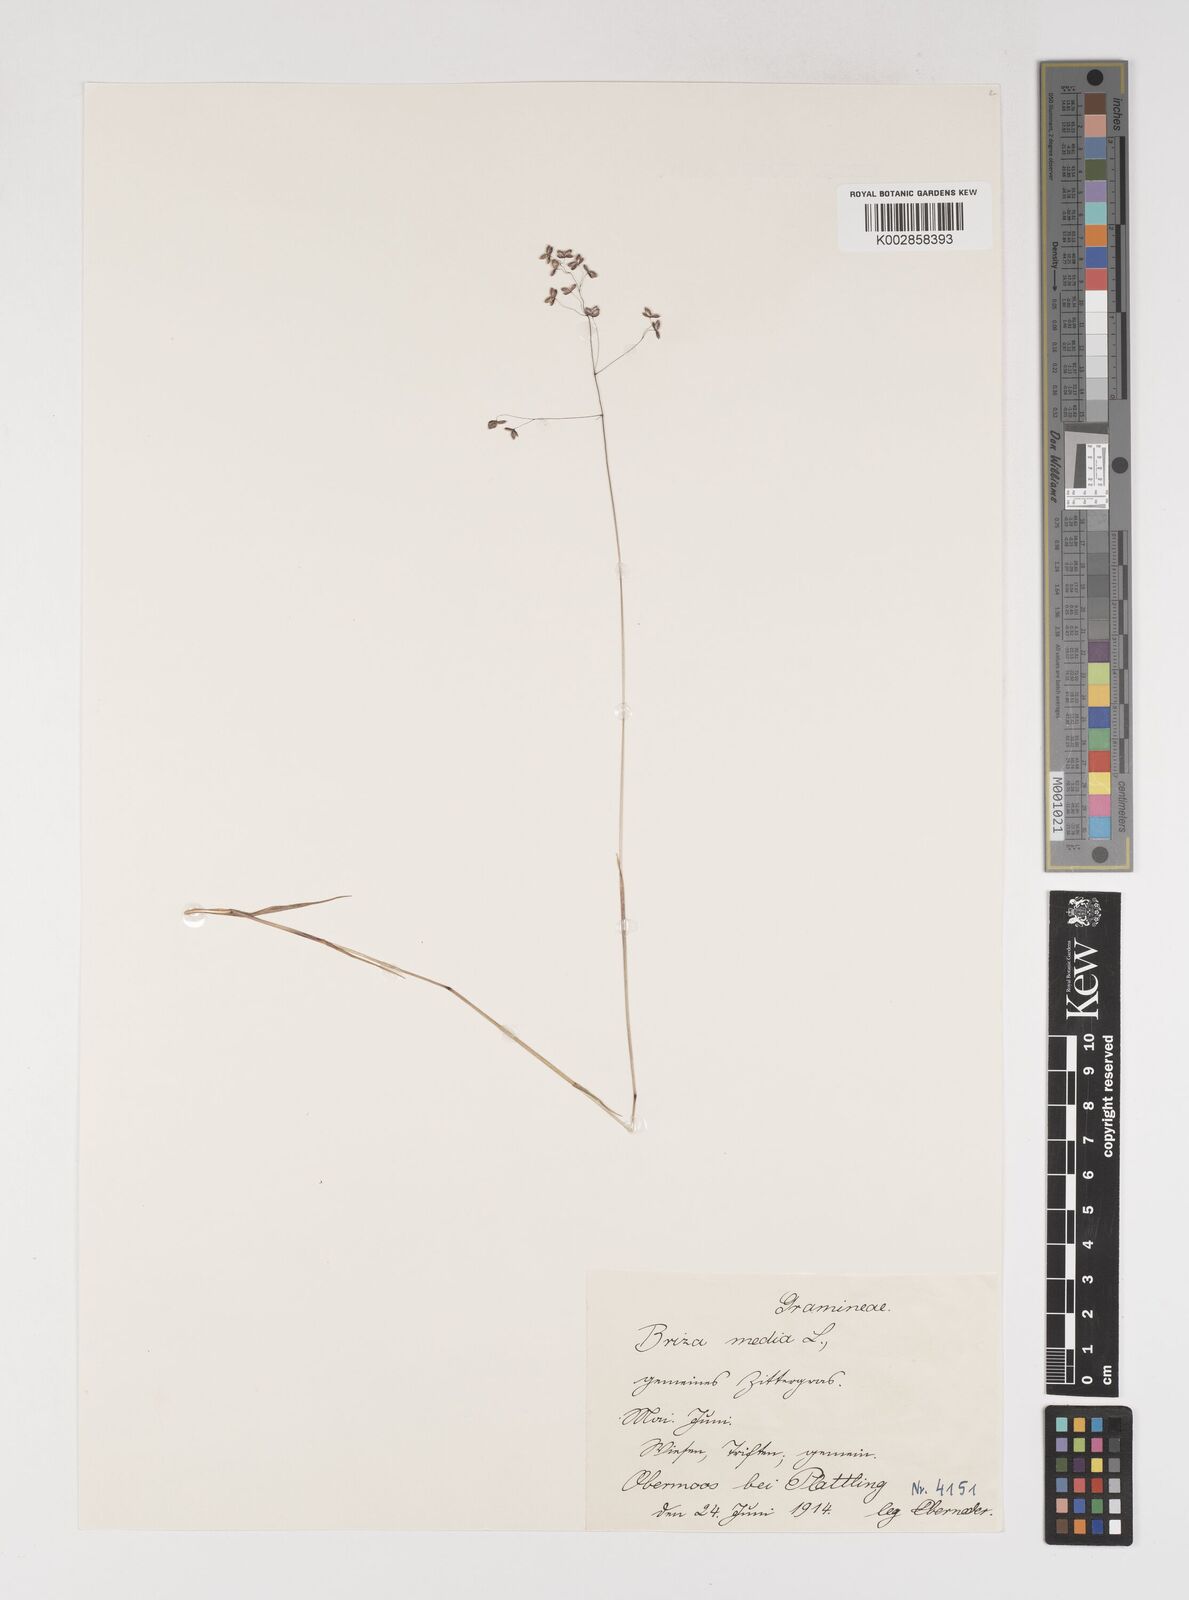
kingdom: Plantae
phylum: Tracheophyta
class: Liliopsida
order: Poales
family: Poaceae
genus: Briza
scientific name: Briza media
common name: Quaking grass
